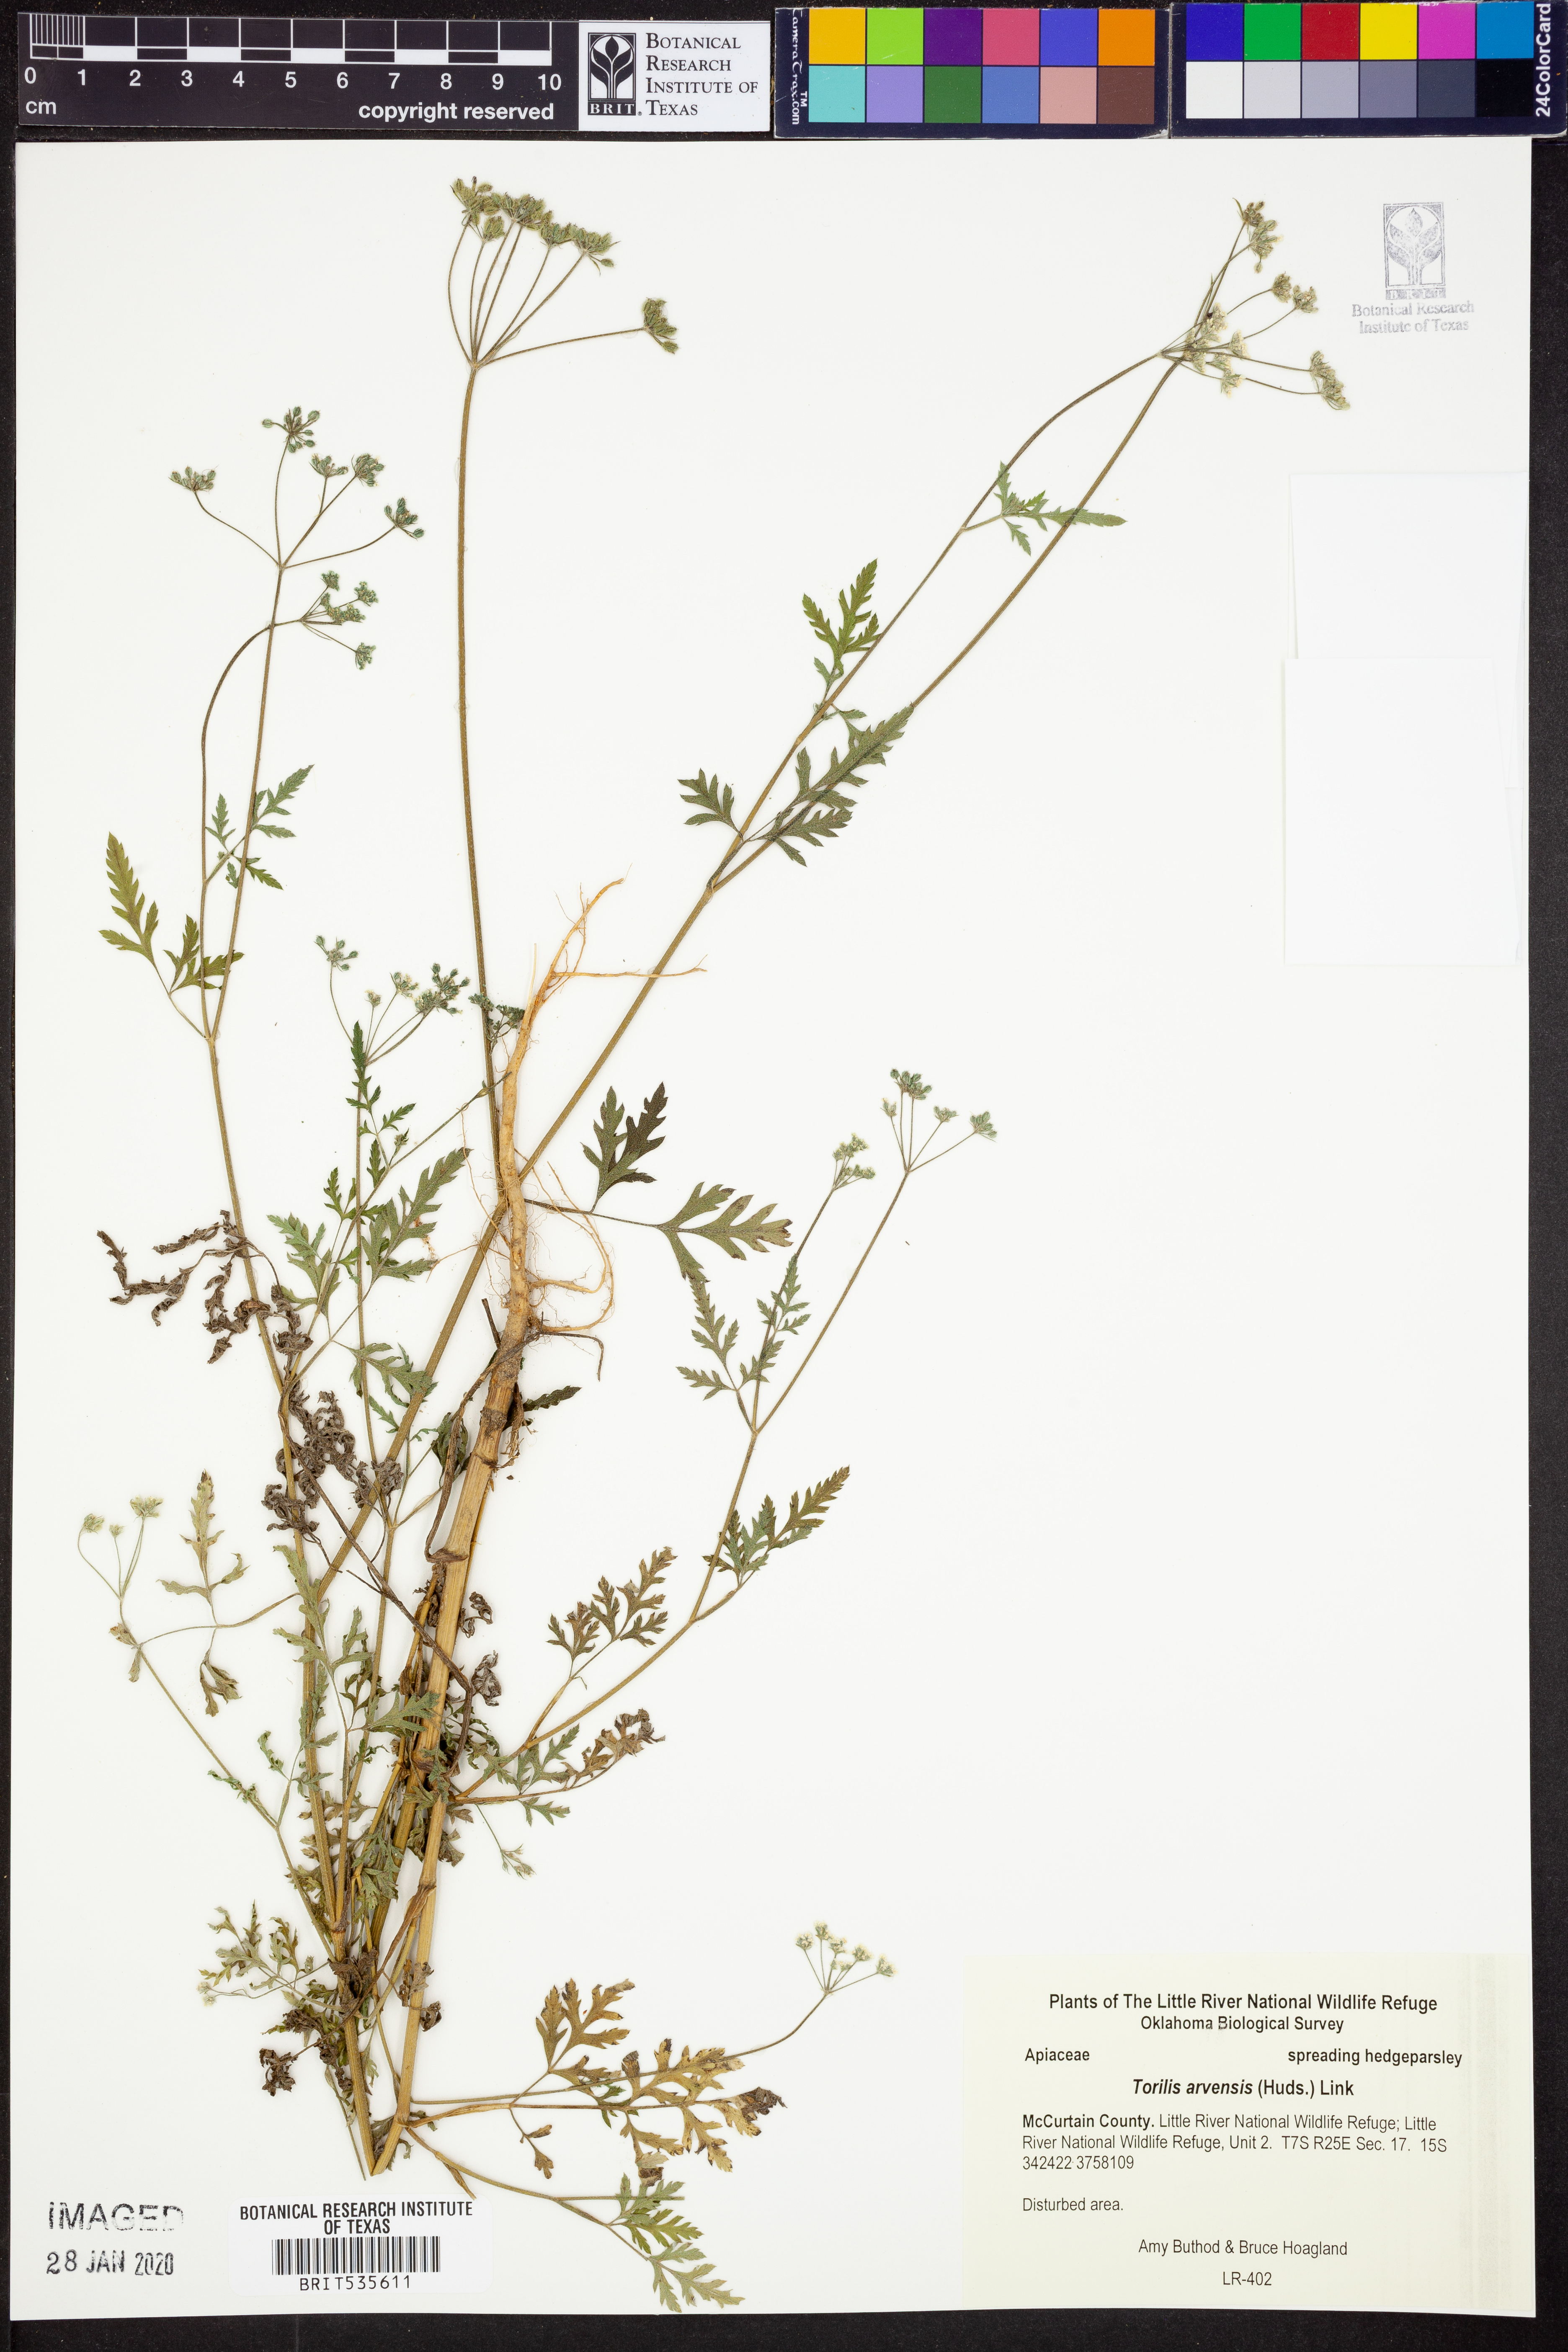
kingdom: Plantae
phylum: Tracheophyta
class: Magnoliopsida
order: Apiales
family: Apiaceae
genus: Torilis
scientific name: Torilis arvensis
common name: Spreading hedge-parsley
